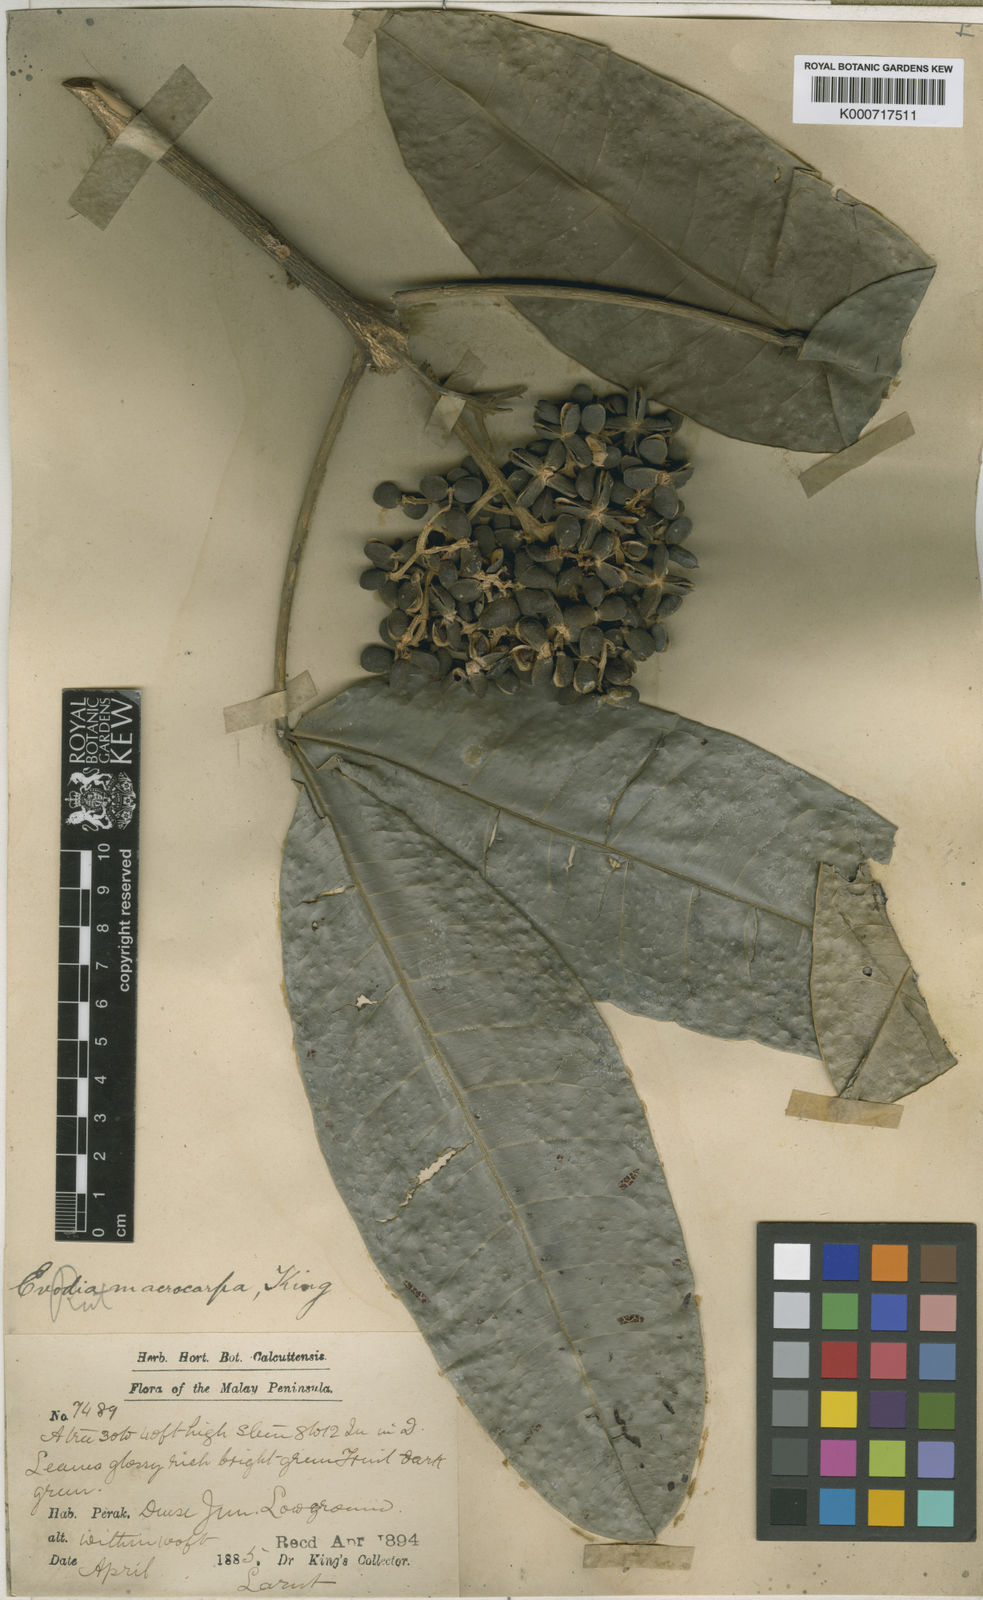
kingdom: Plantae
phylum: Tracheophyta
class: Magnoliopsida
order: Sapindales
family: Rutaceae
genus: Melicope
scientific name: Melicope macrocarpa
